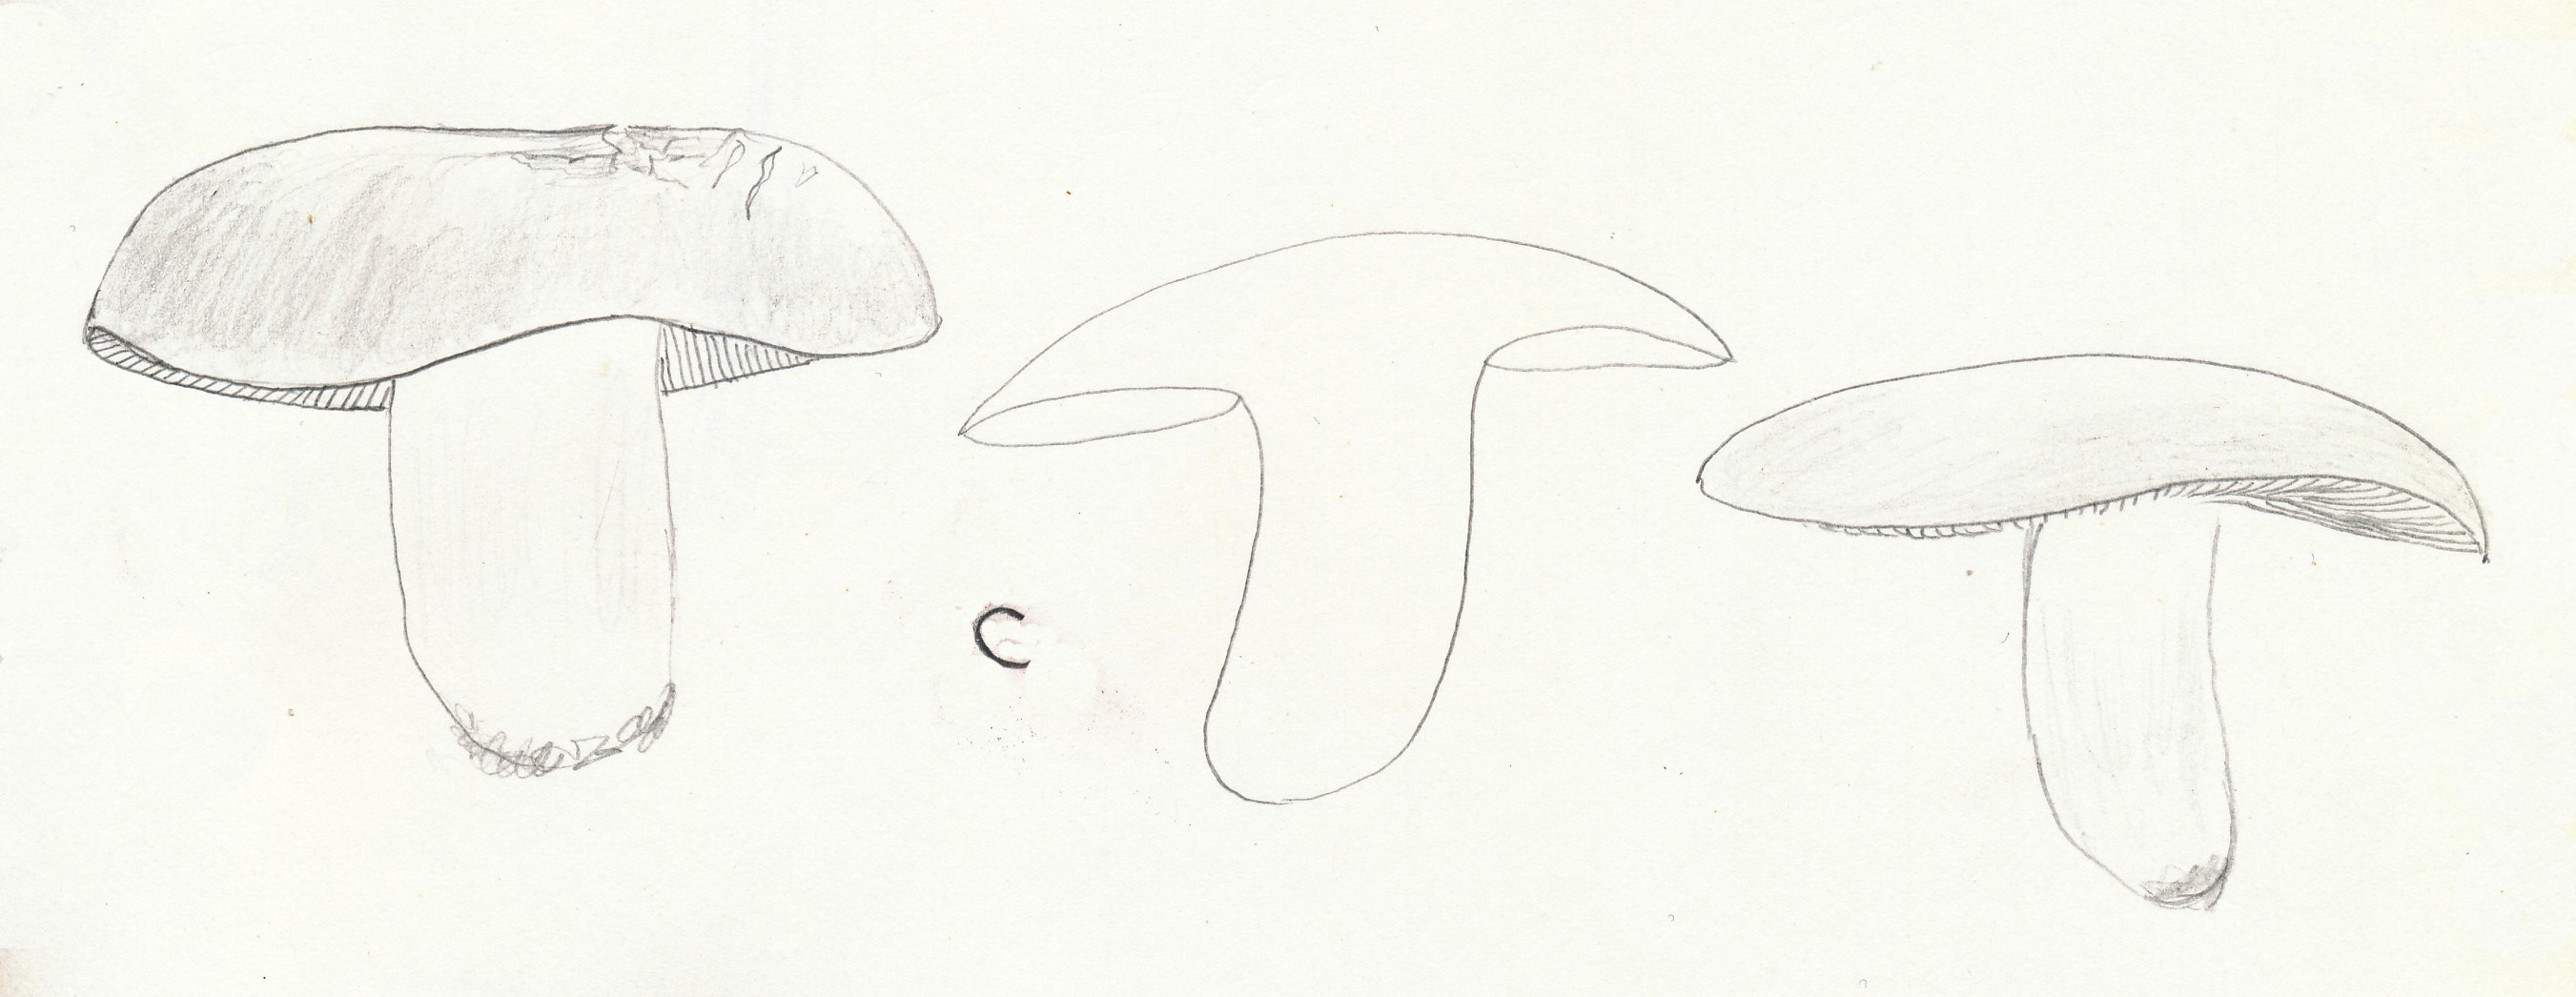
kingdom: Fungi
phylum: Basidiomycota
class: Agaricomycetes
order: Russulales
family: Russulaceae
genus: Russula
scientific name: Russula depallens
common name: falmende skørhat
